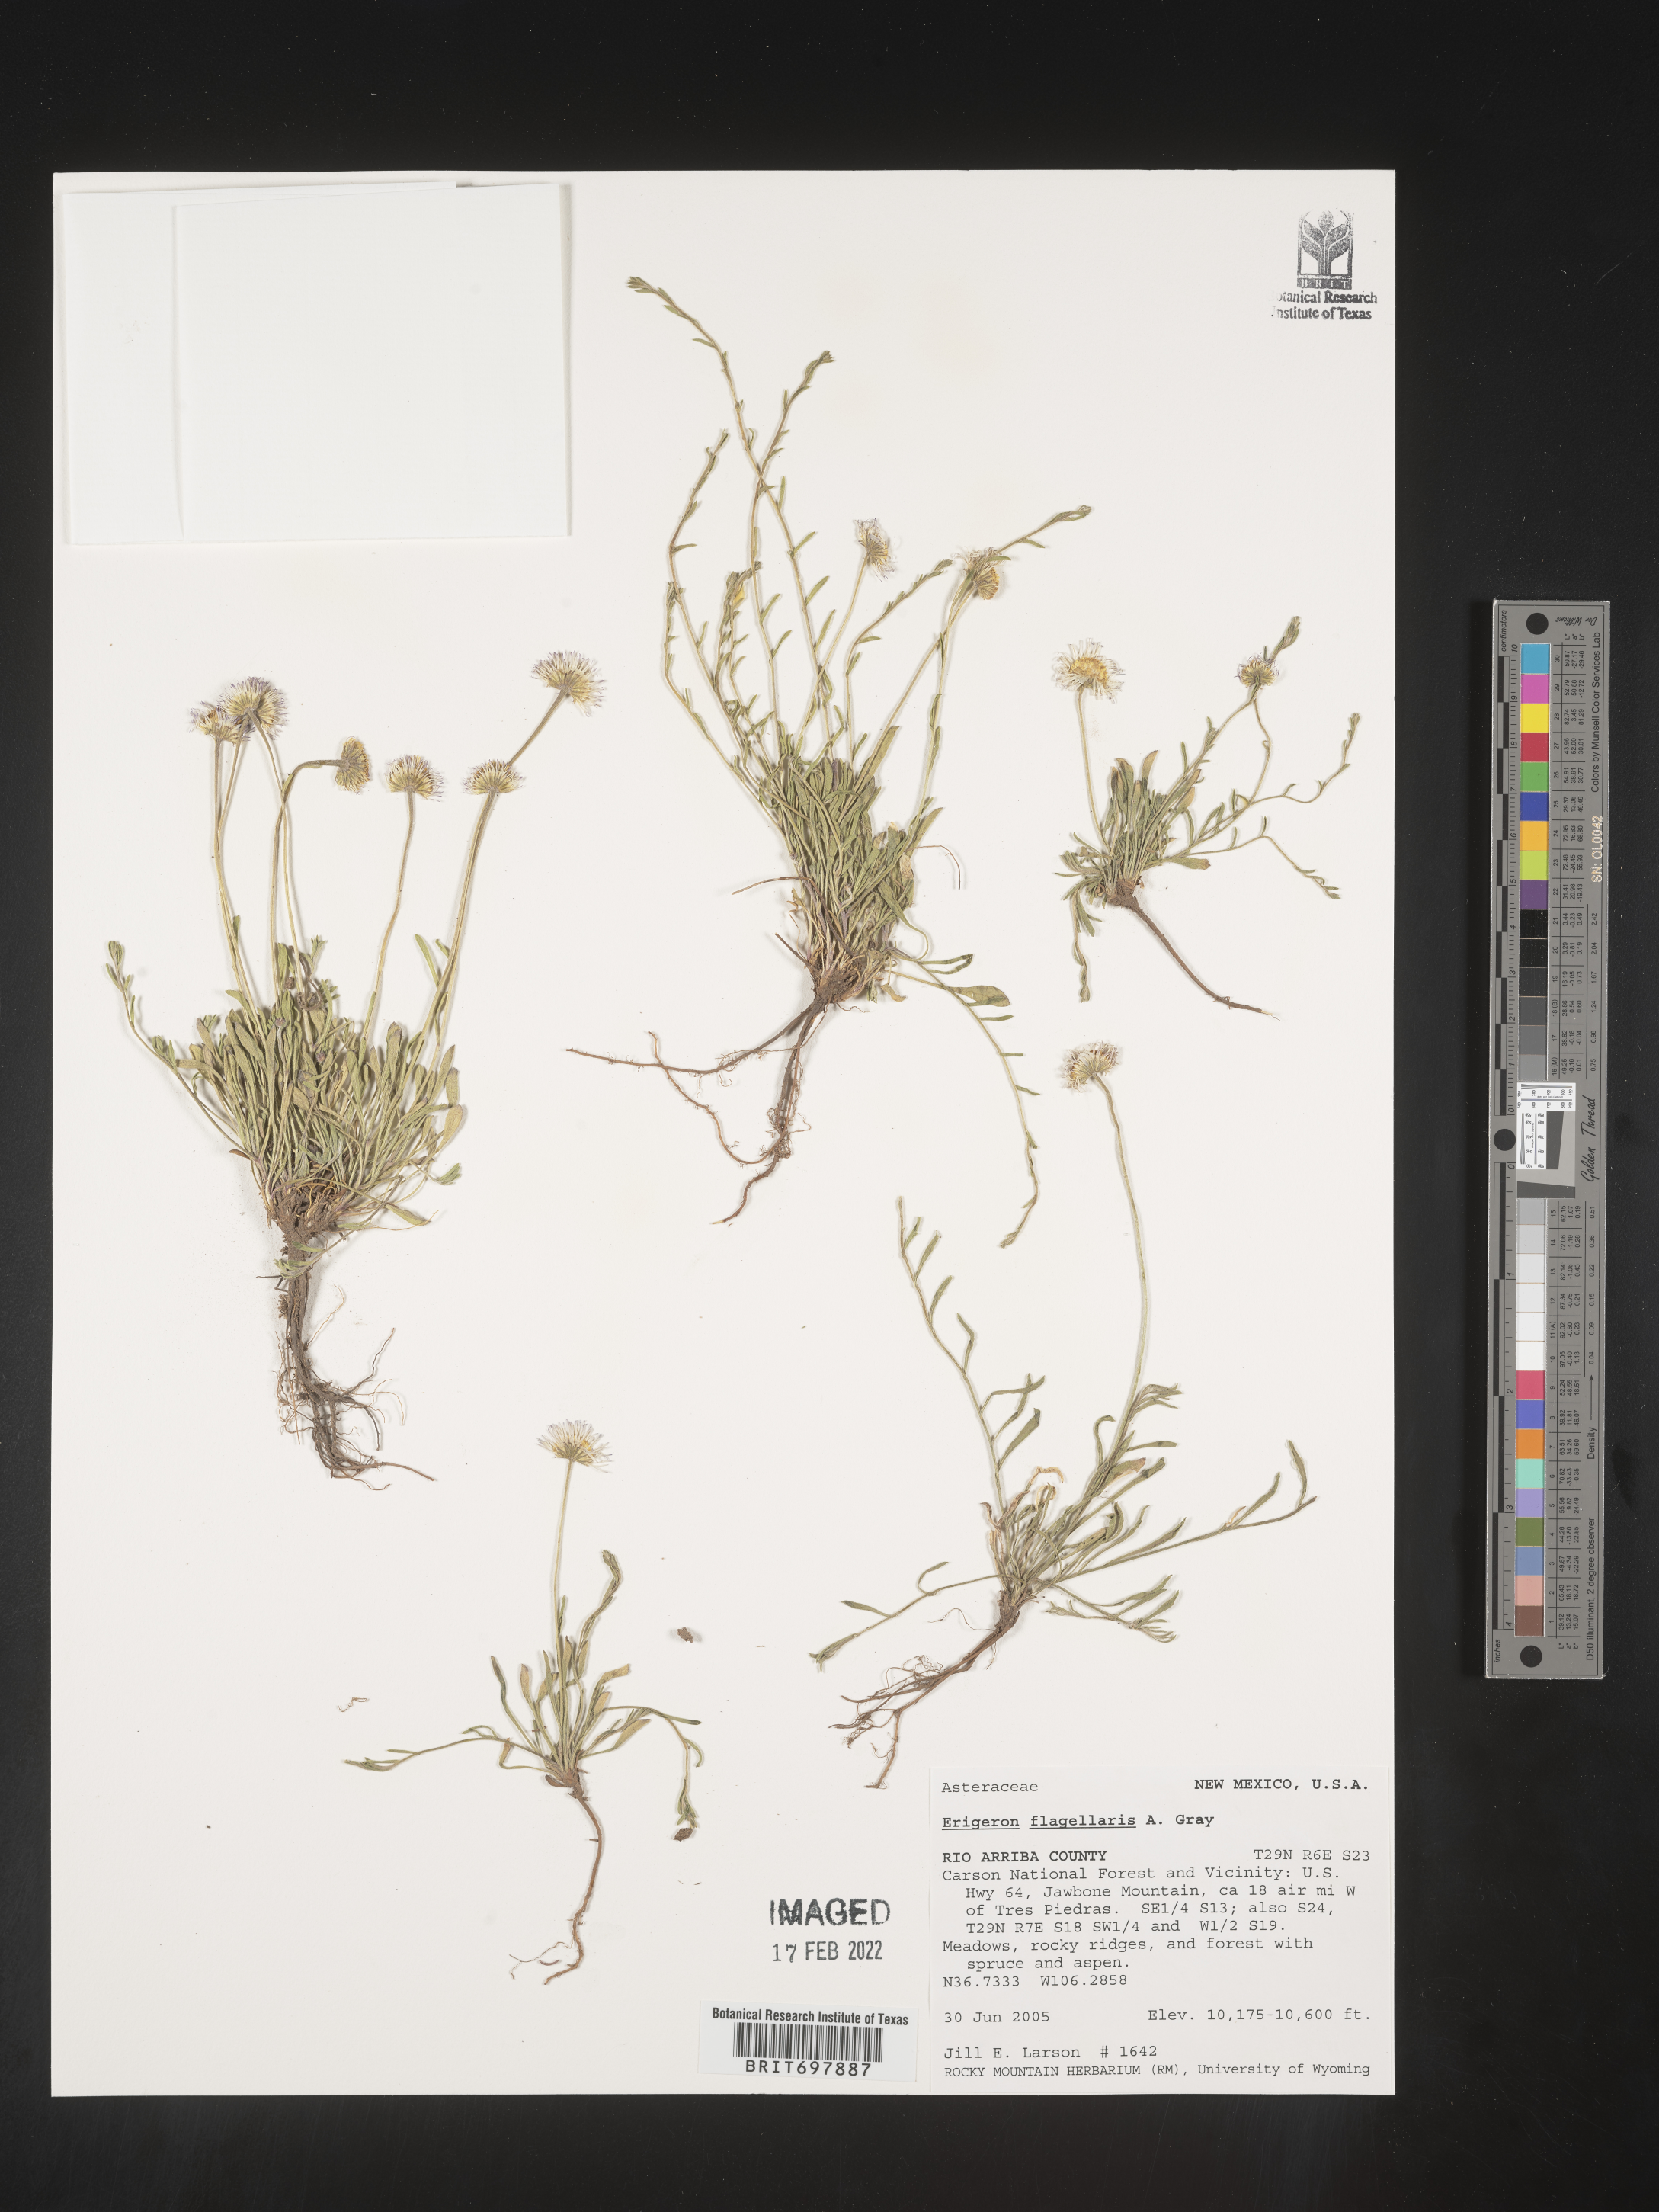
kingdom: Plantae
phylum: Tracheophyta
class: Magnoliopsida
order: Asterales
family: Asteraceae
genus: Erigeron
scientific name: Erigeron flagellaris
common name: Running fleabane
